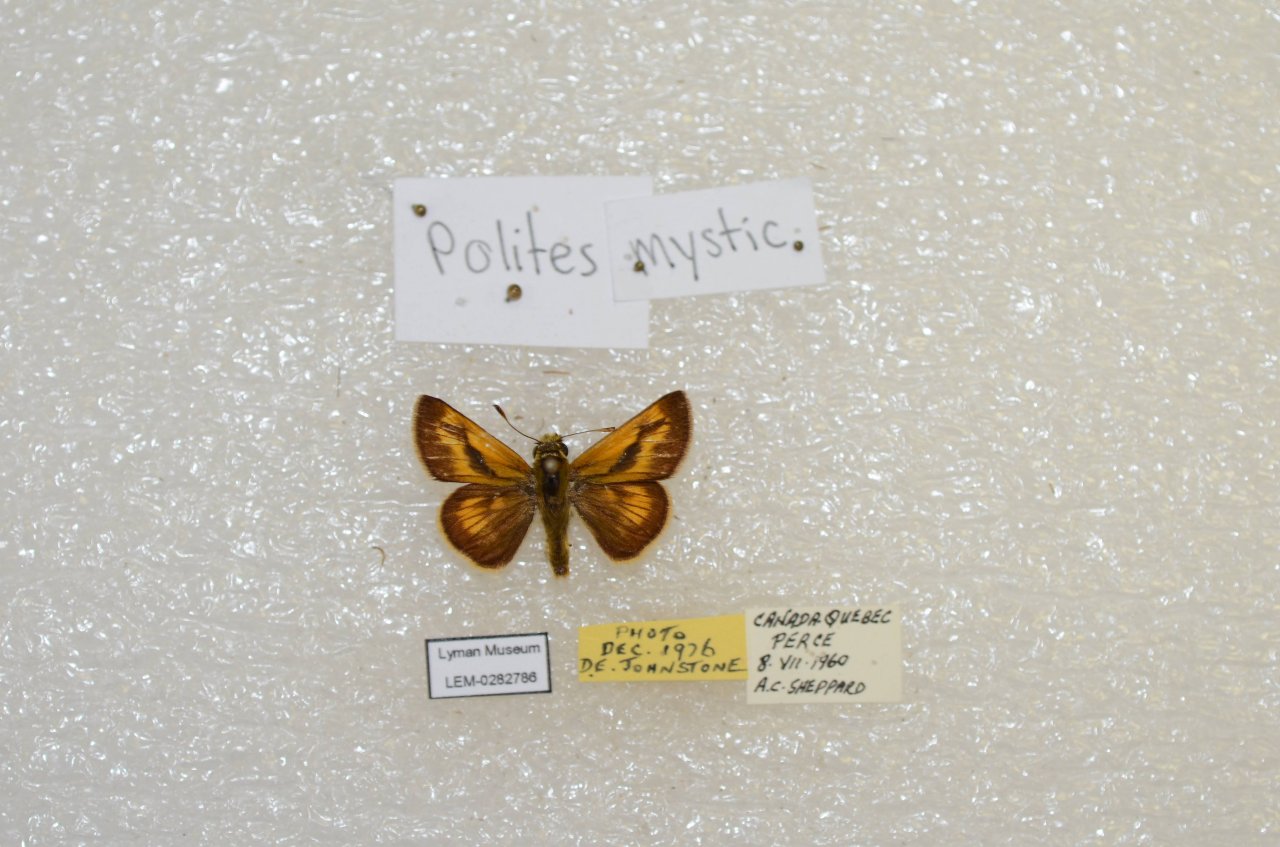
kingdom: Animalia
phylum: Arthropoda
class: Insecta
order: Lepidoptera
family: Hesperiidae
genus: Polites
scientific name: Polites
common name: Long Dash Skipper
